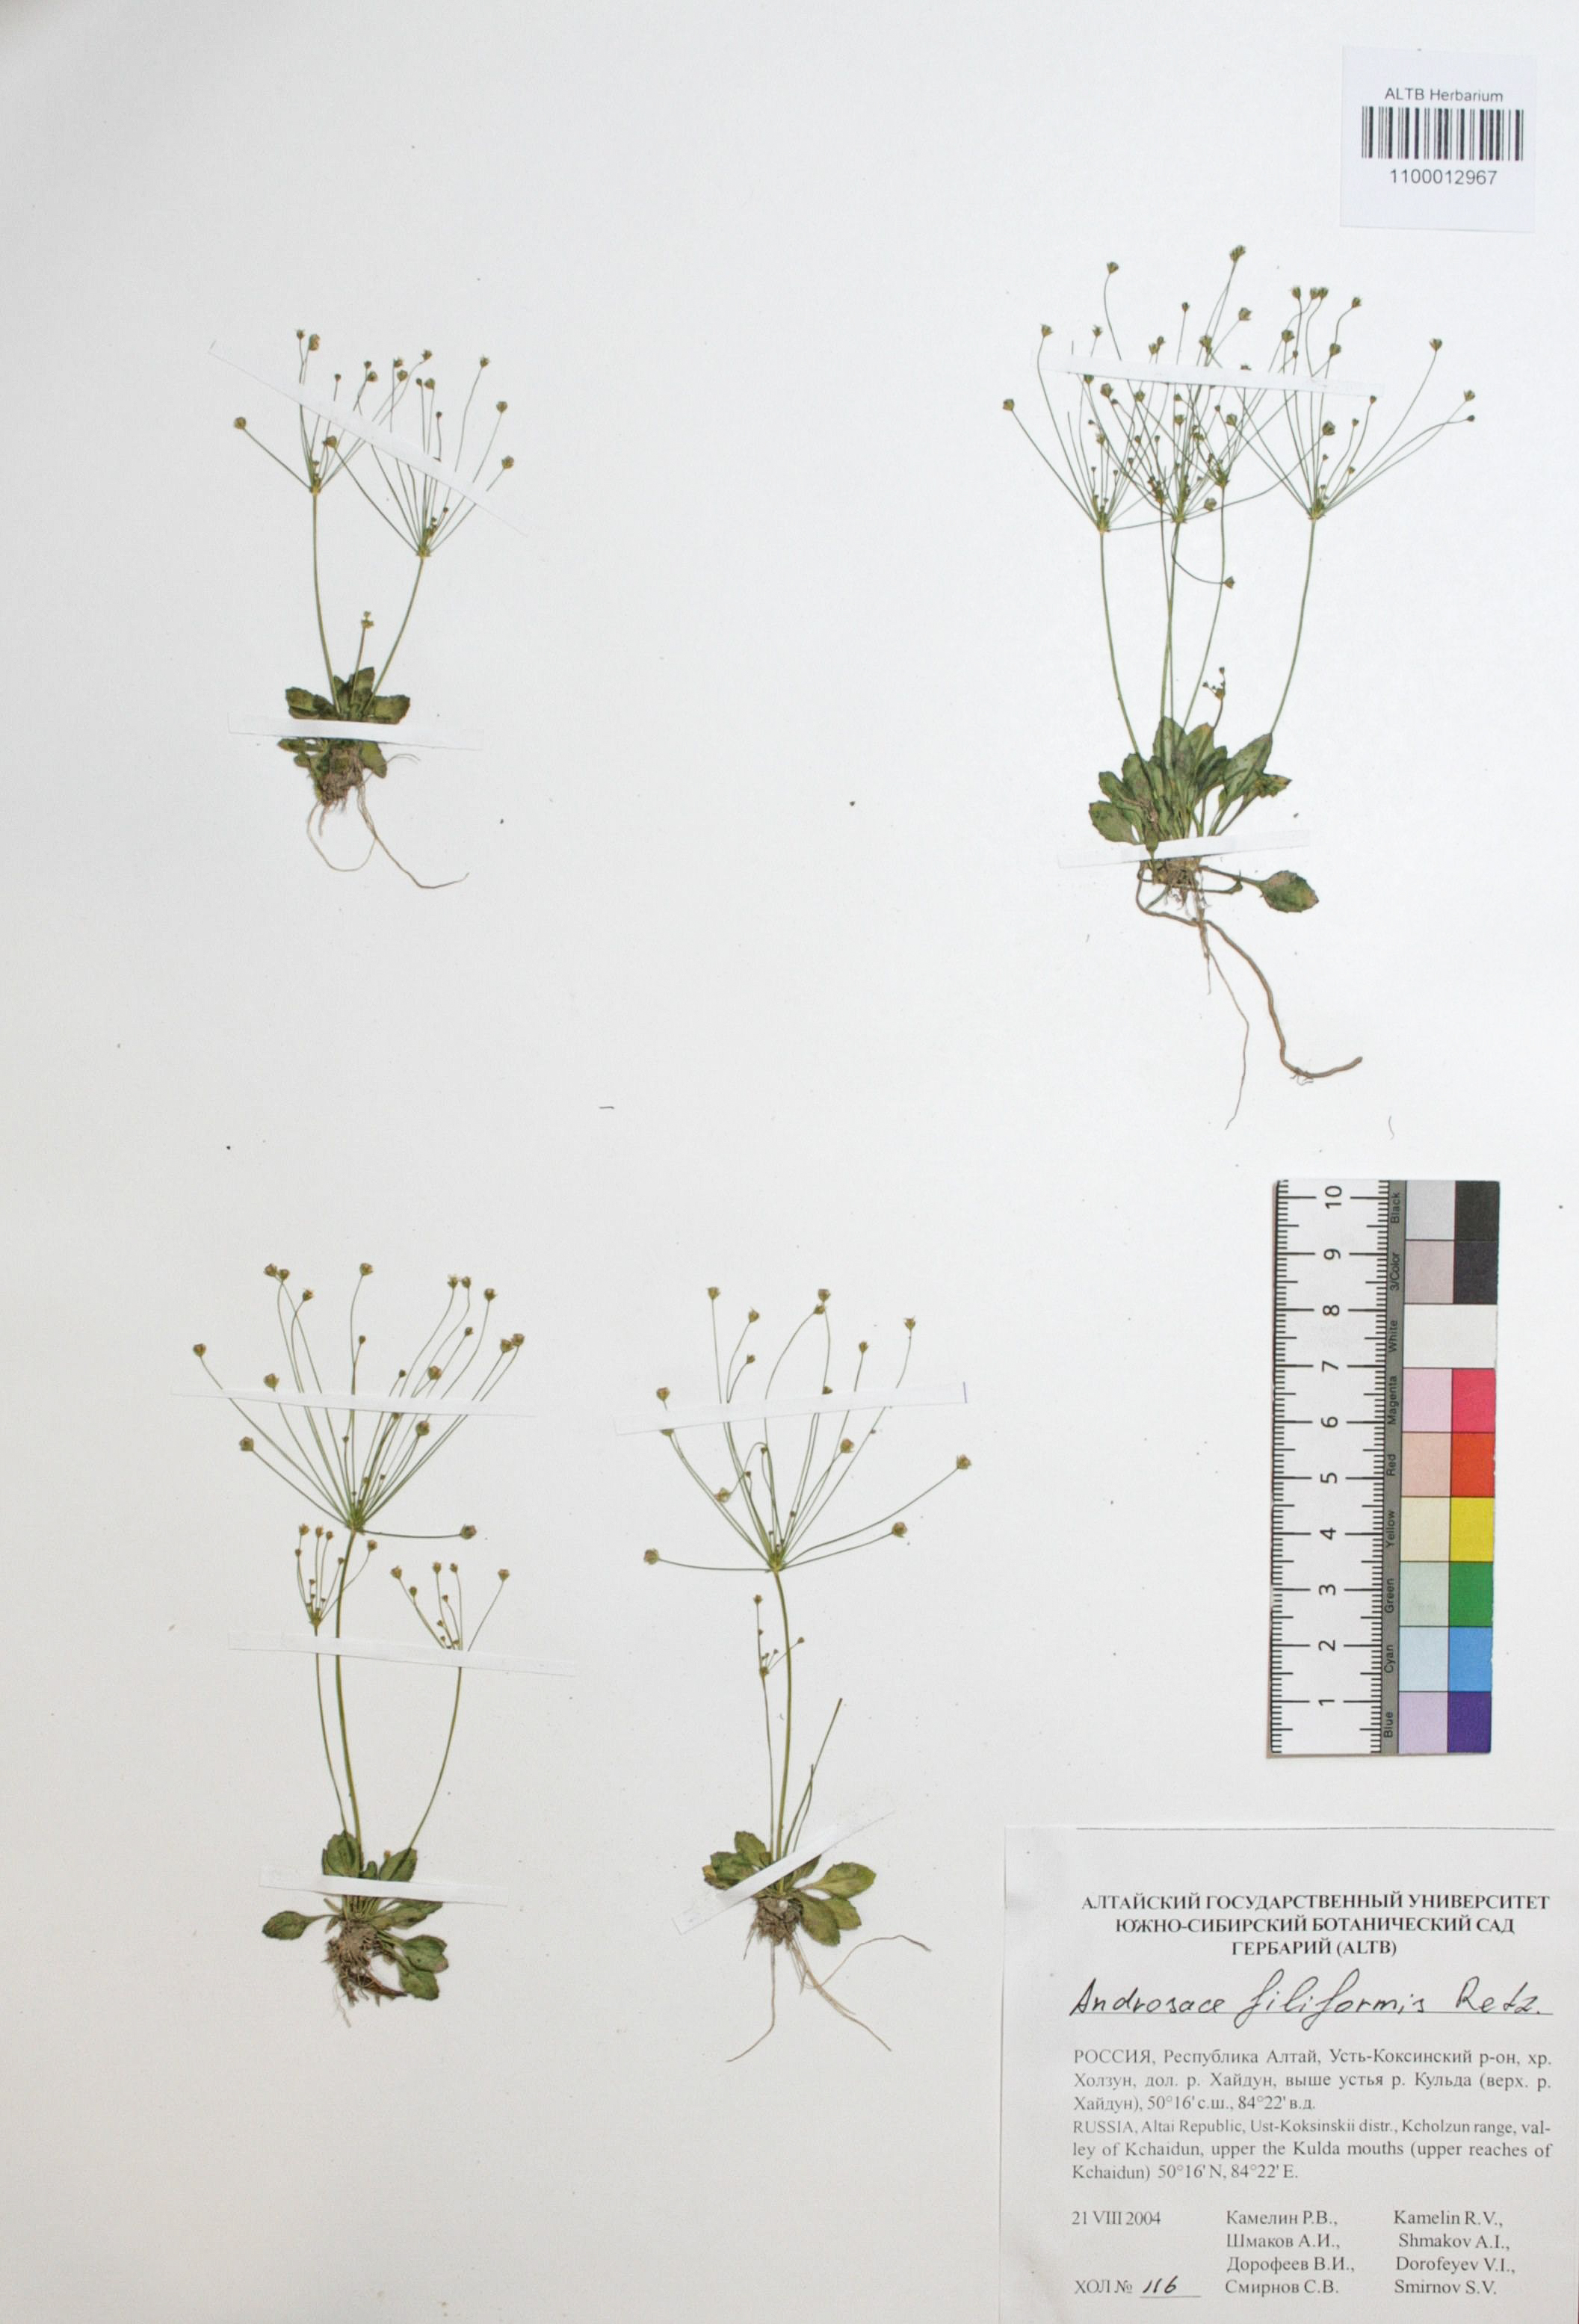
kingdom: Plantae
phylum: Tracheophyta
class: Magnoliopsida
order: Ericales
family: Primulaceae
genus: Androsace
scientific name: Androsace filiformis
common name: Filiform rock jasmine
